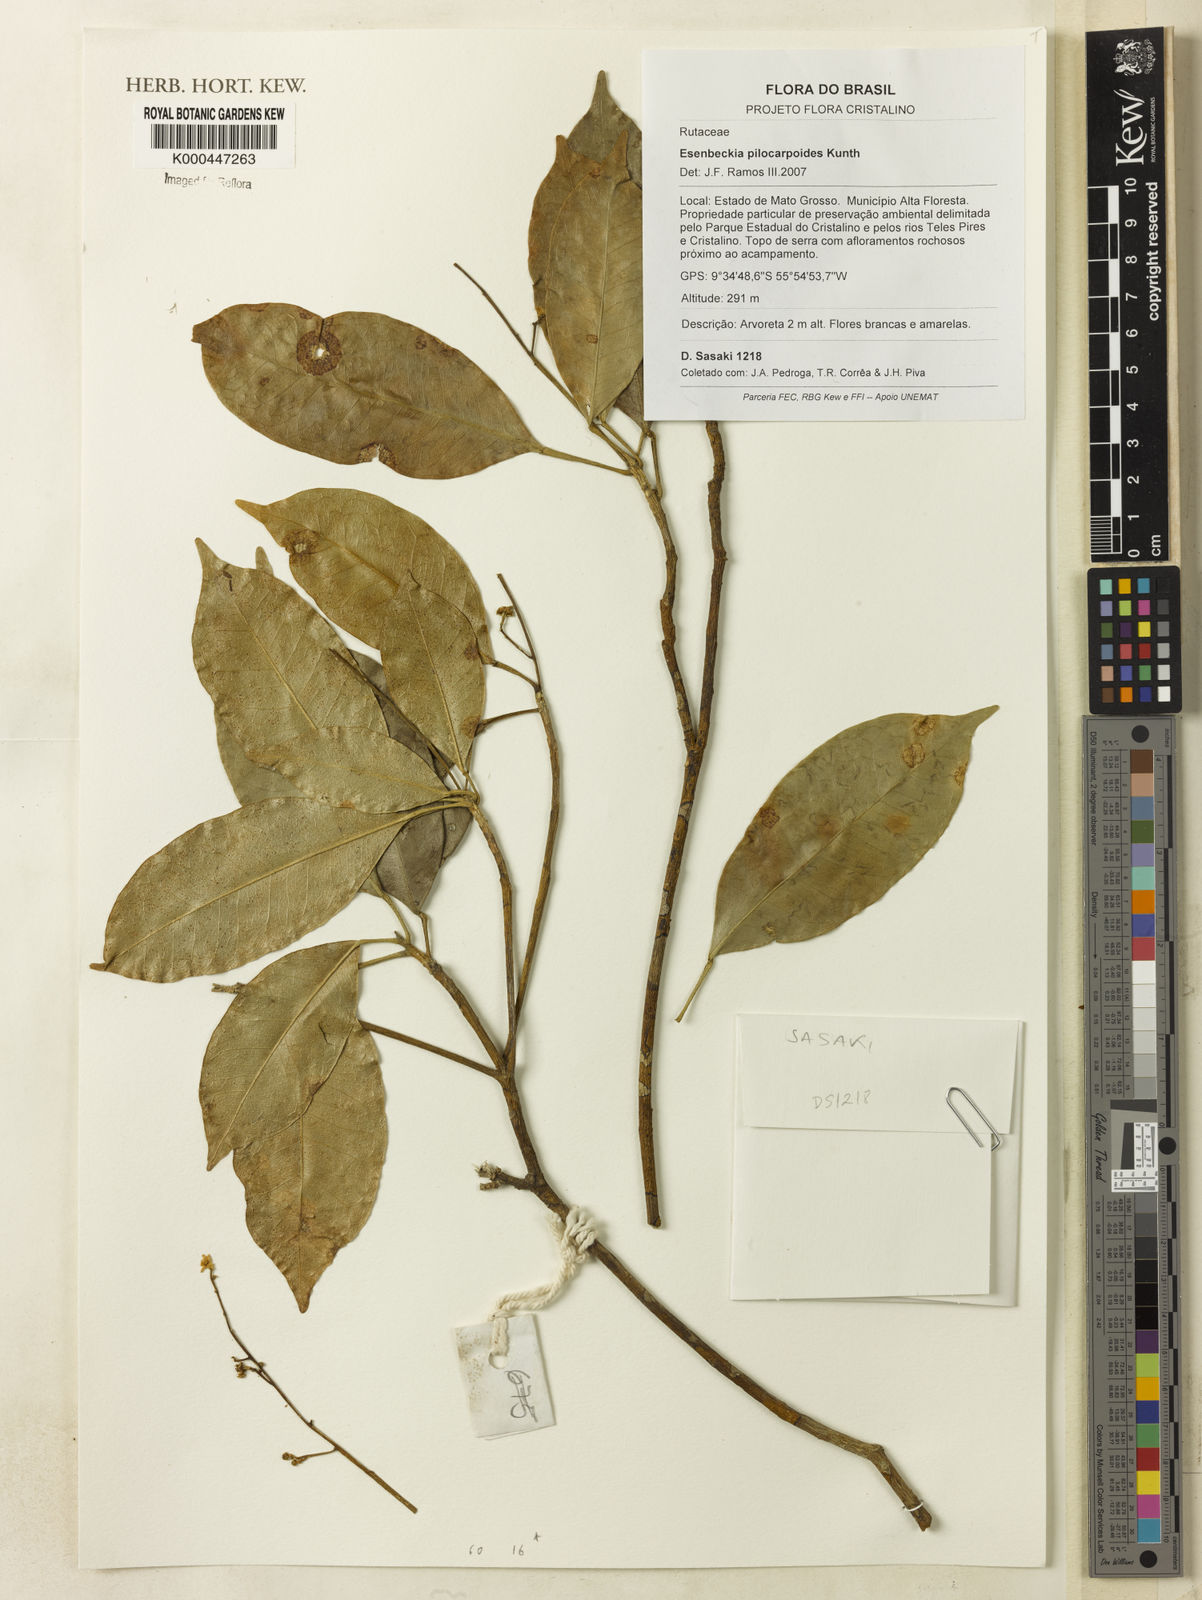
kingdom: Plantae
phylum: Tracheophyta
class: Magnoliopsida
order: Sapindales
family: Rutaceae
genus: Esenbeckia
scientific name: Esenbeckia pilocarpoides
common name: Pilosefruit esenbeckia
